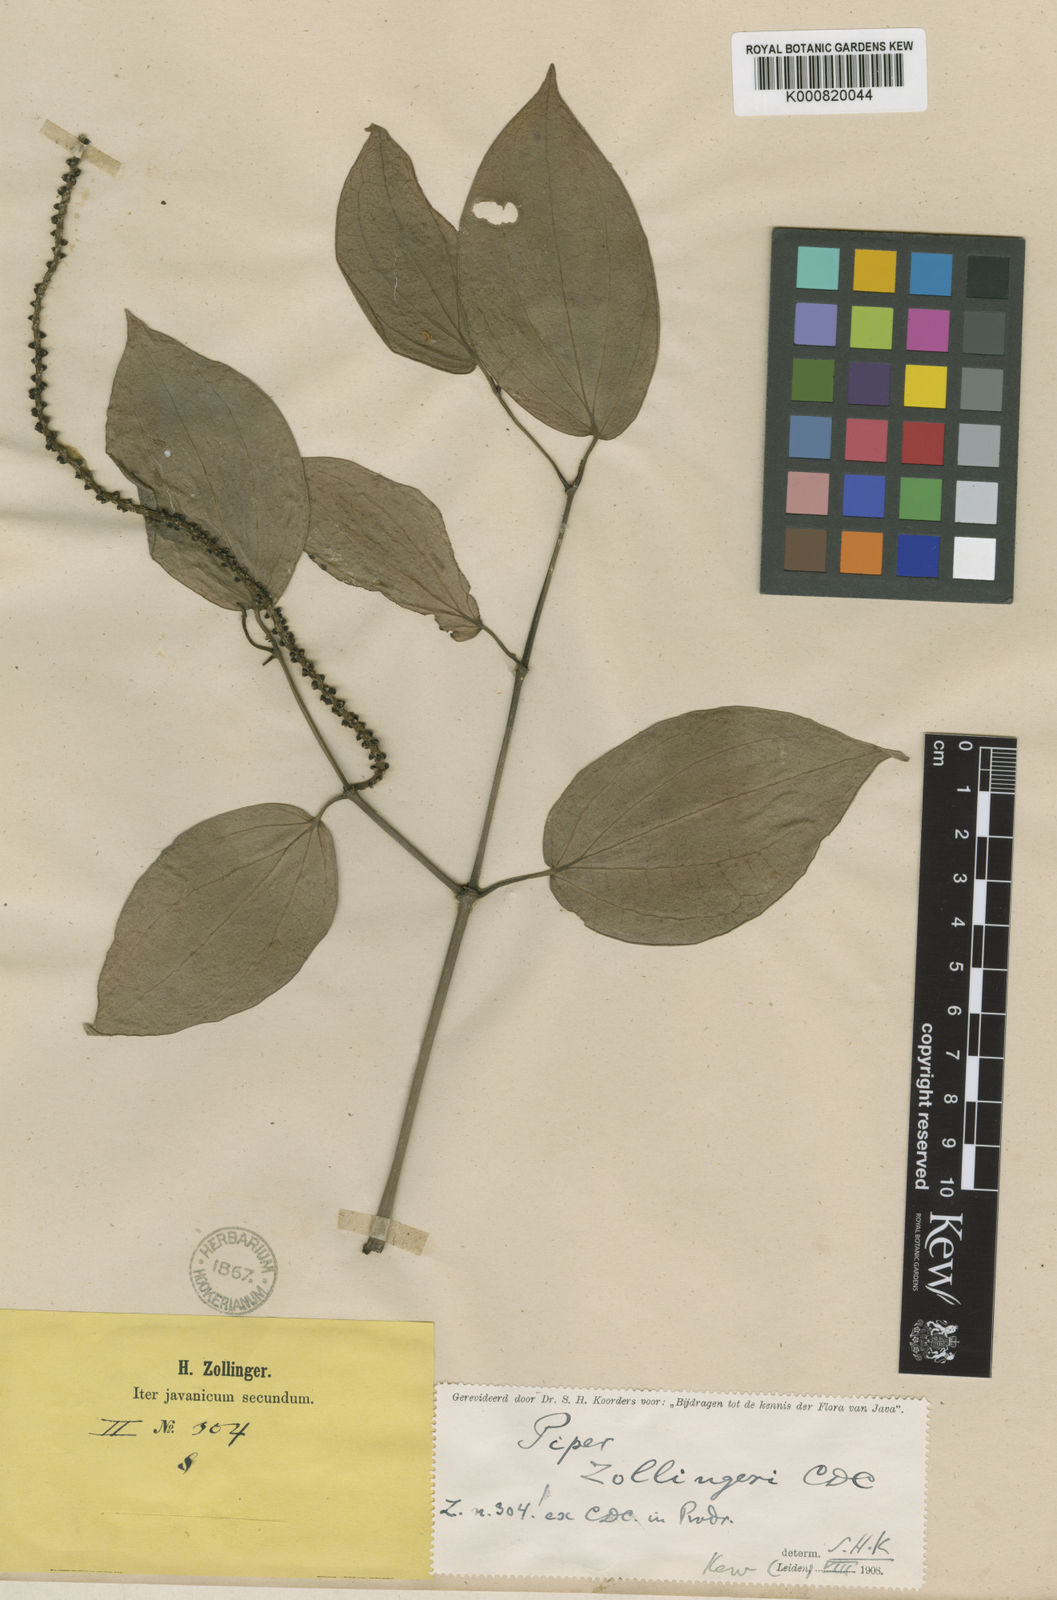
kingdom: Plantae
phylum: Tracheophyta
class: Magnoliopsida
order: Piperales
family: Piperaceae
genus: Piper
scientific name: Piper zollingeri
